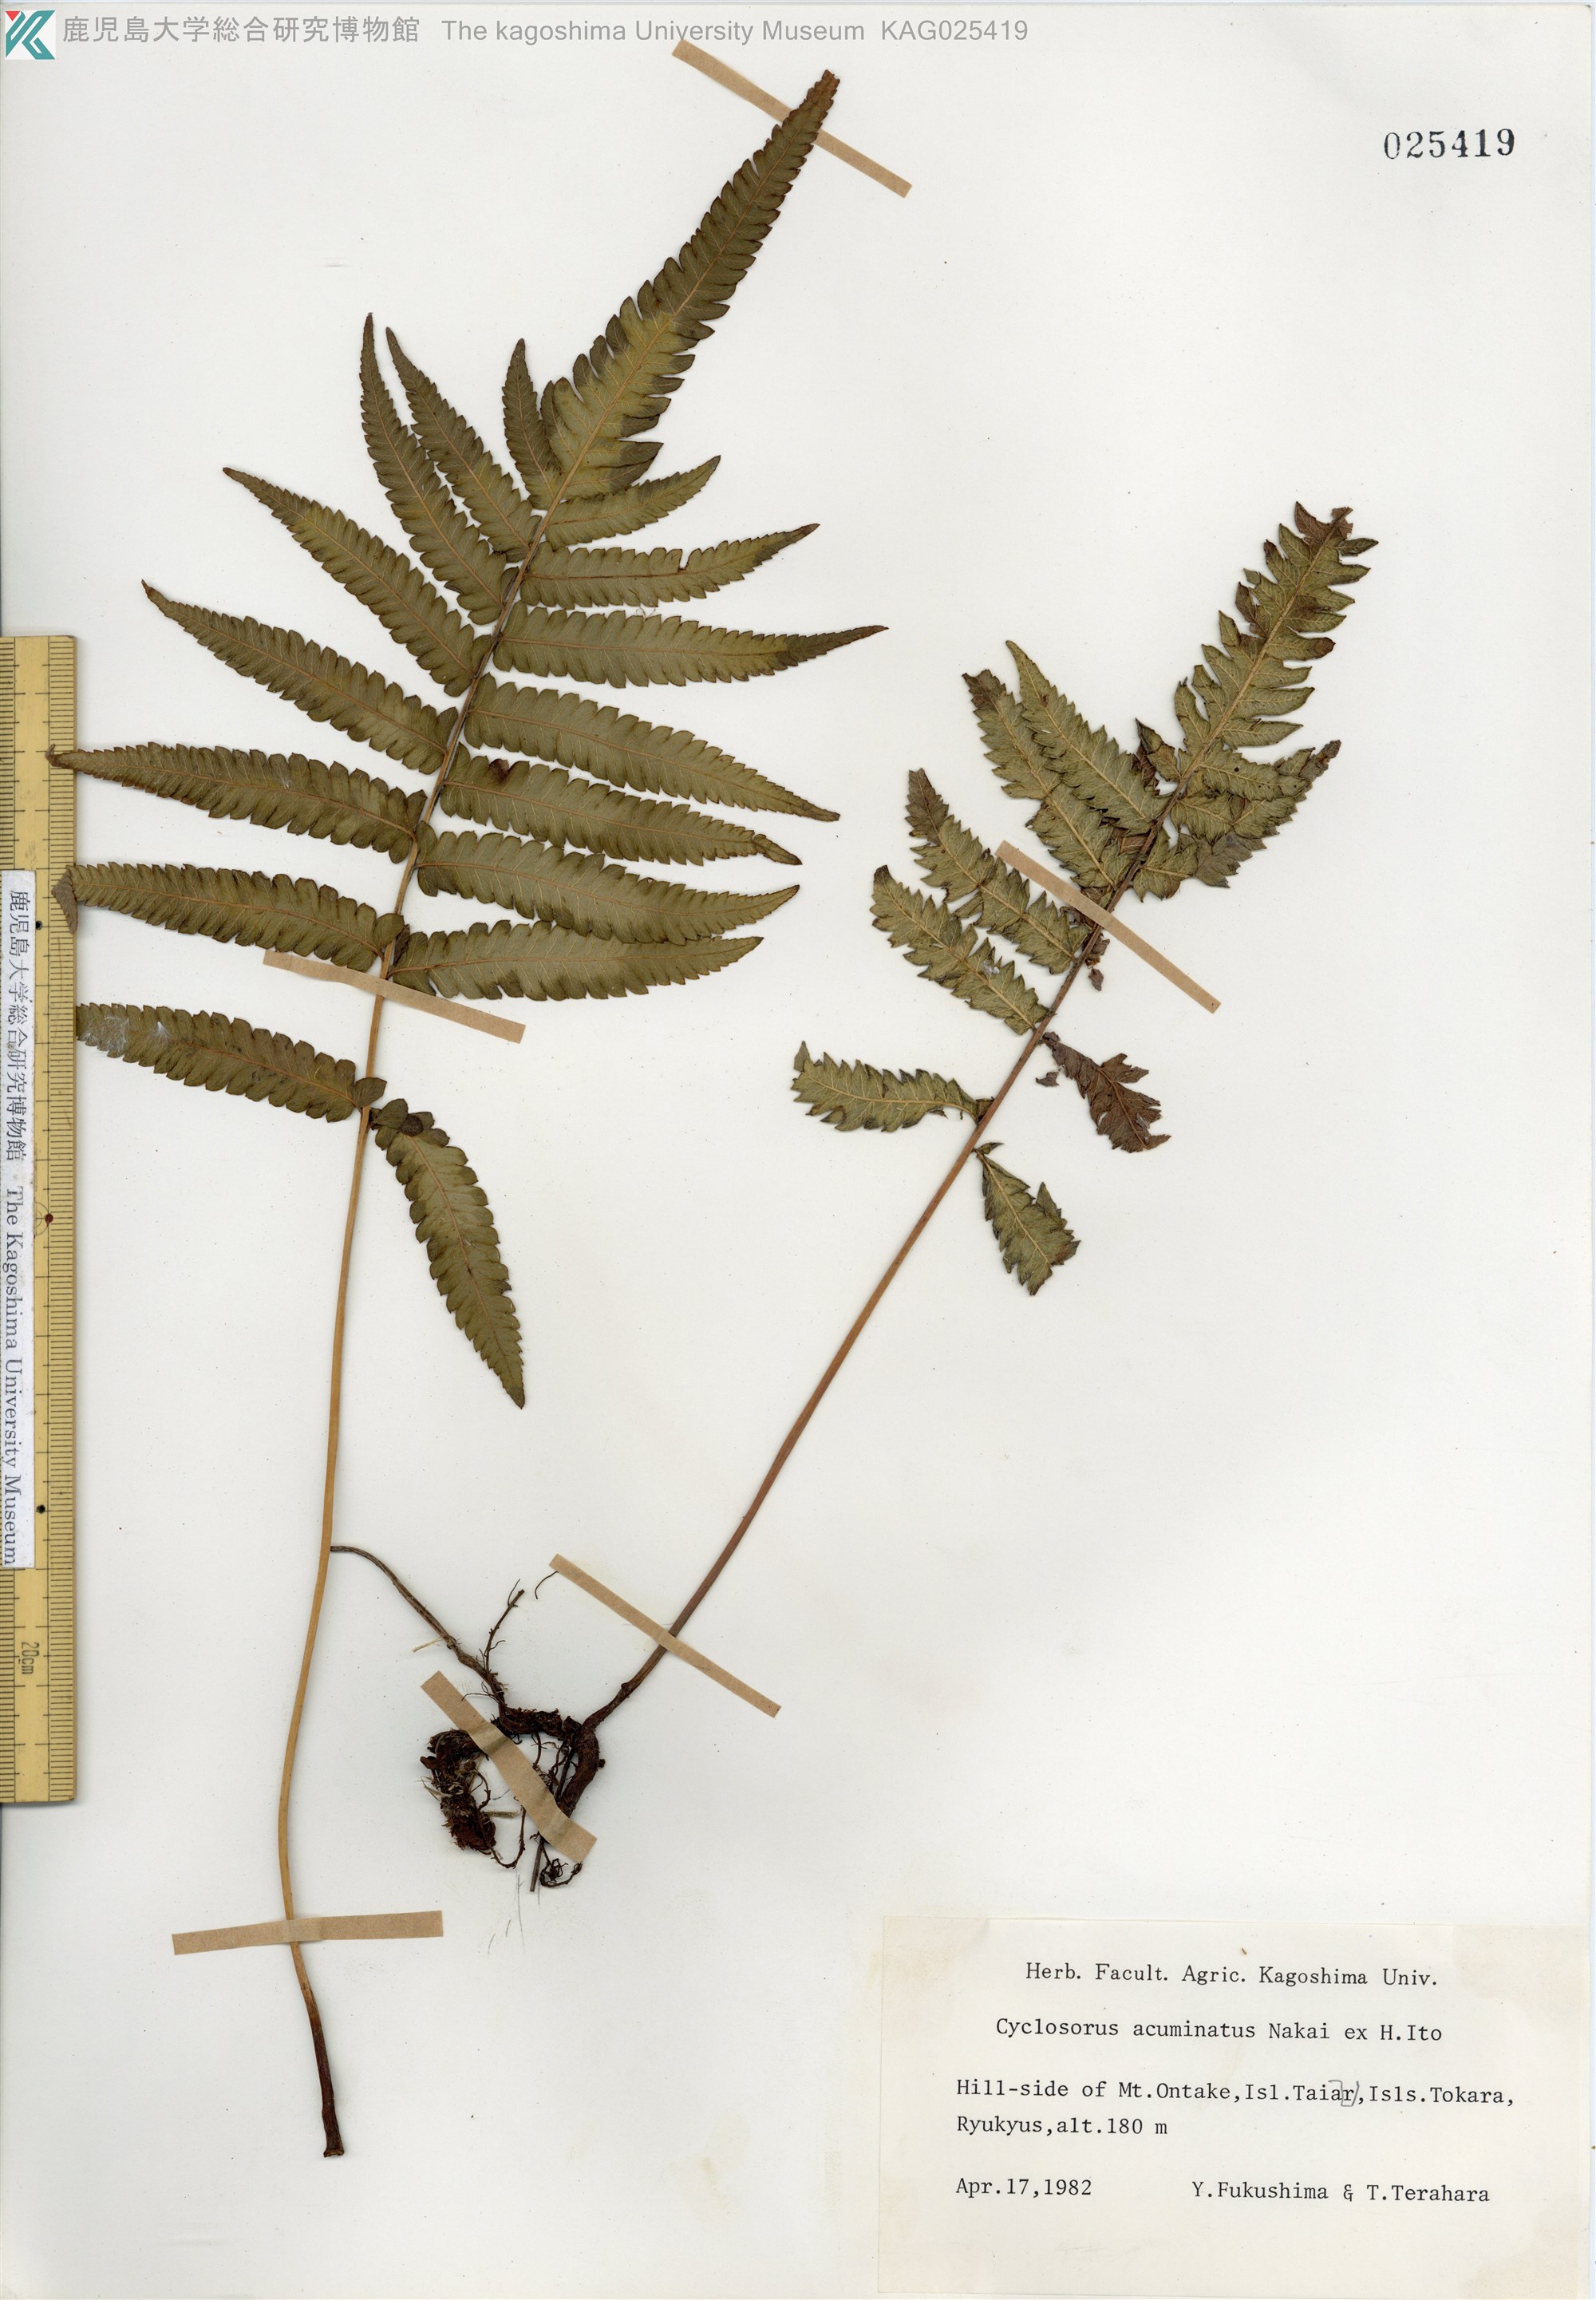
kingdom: Plantae
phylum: Tracheophyta
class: Polypodiopsida
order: Polypodiales
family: Thelypteridaceae
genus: Christella
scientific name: Christella acuminata
